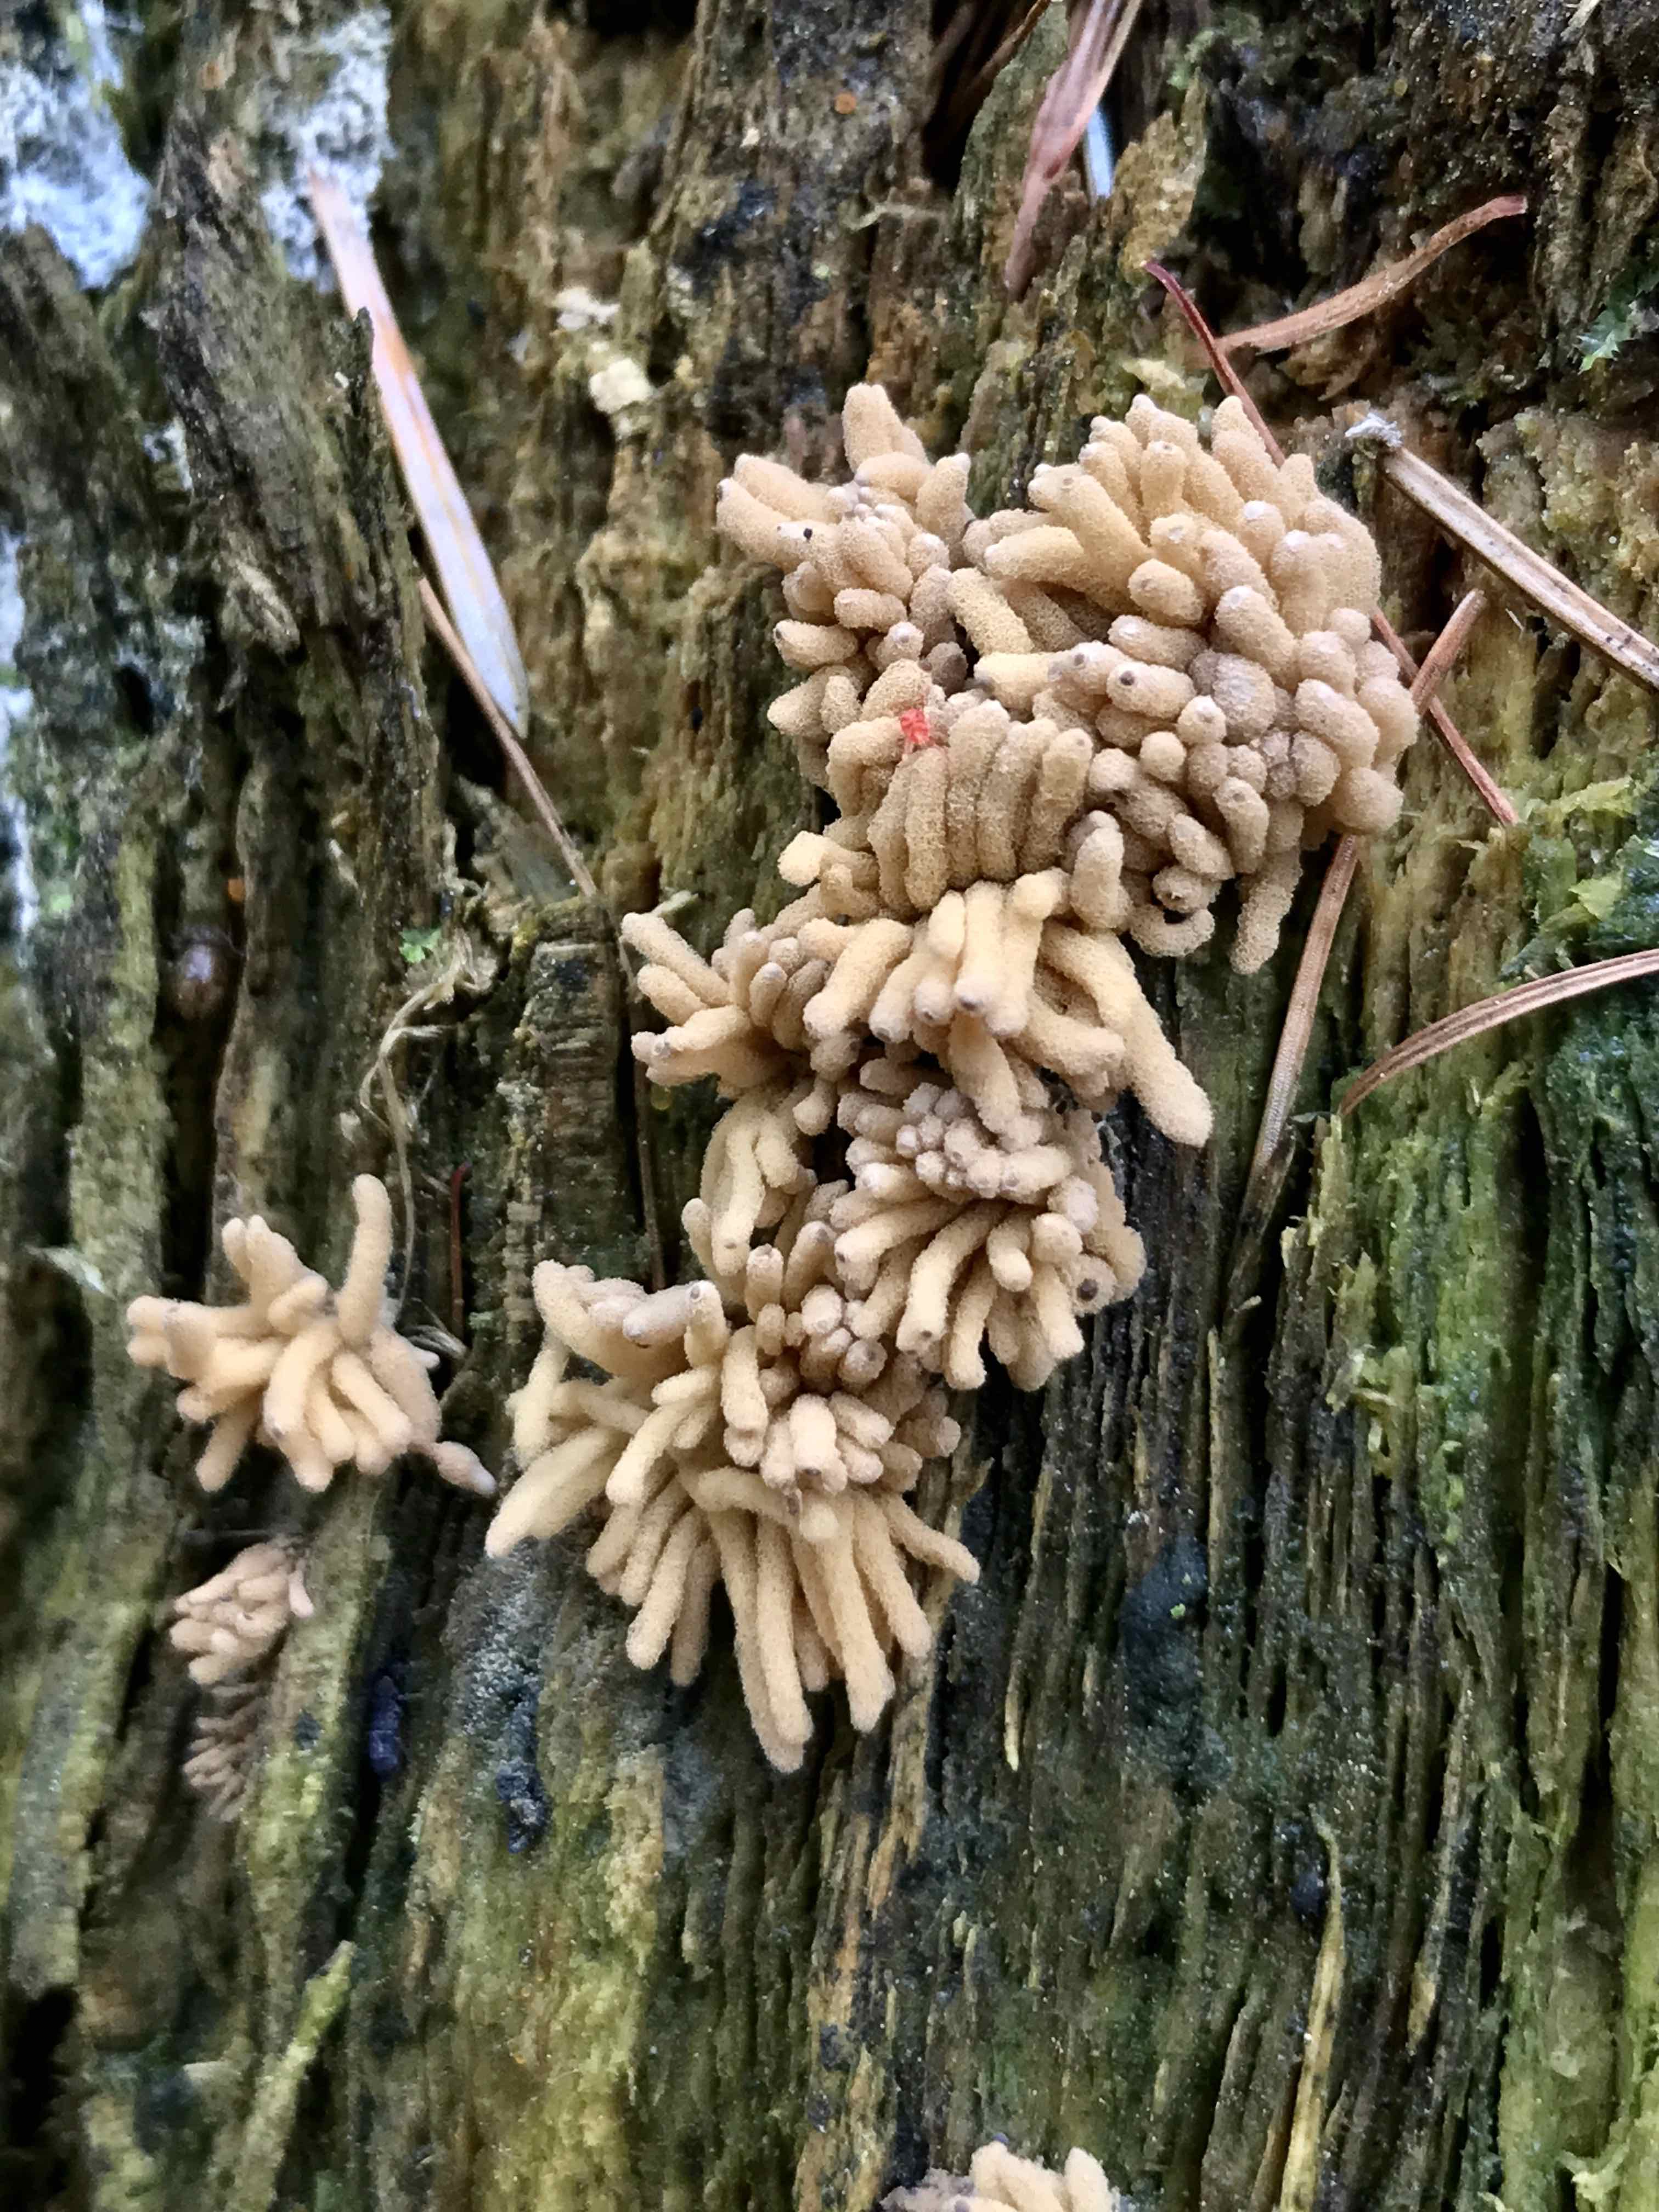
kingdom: Protozoa
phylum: Mycetozoa
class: Myxomycetes
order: Trichiales
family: Arcyriaceae
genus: Arcyria
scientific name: Arcyria obvelata
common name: okkergul skålsvøb
